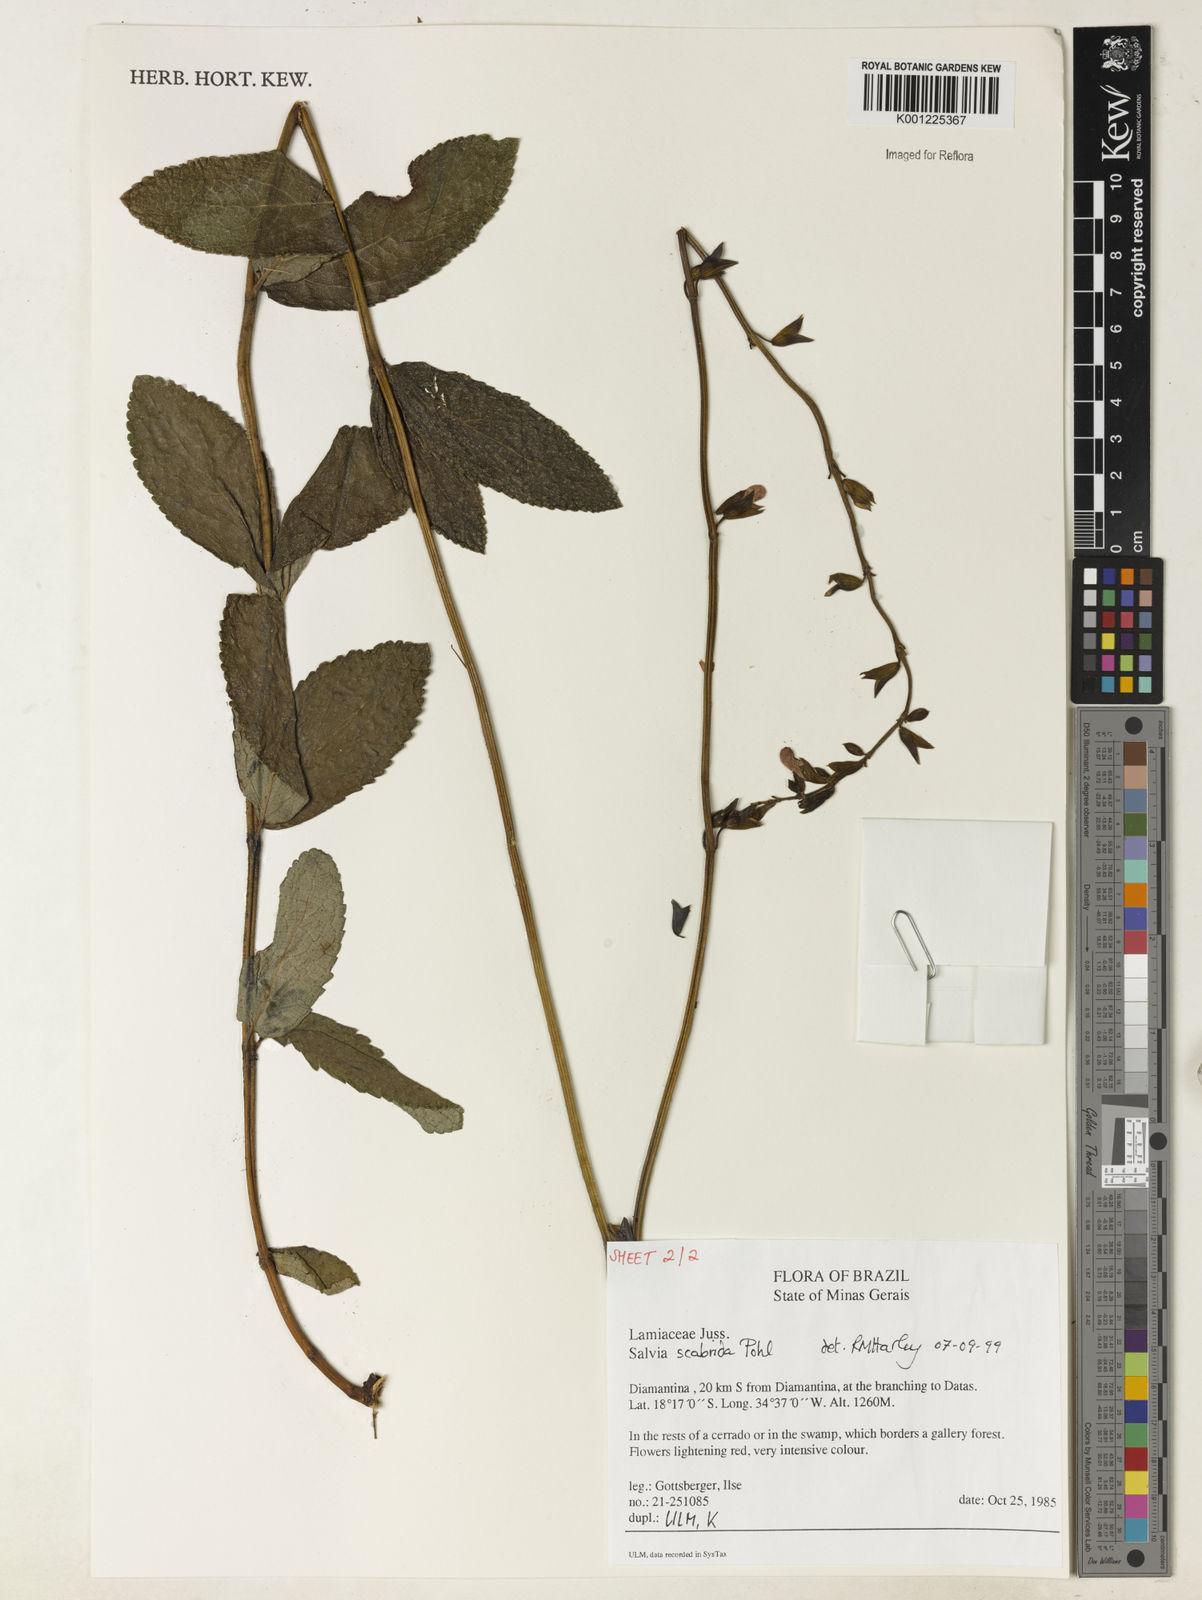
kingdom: Plantae
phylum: Tracheophyta
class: Magnoliopsida
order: Lamiales
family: Lamiaceae
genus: Salvia
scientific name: Salvia scabrida
